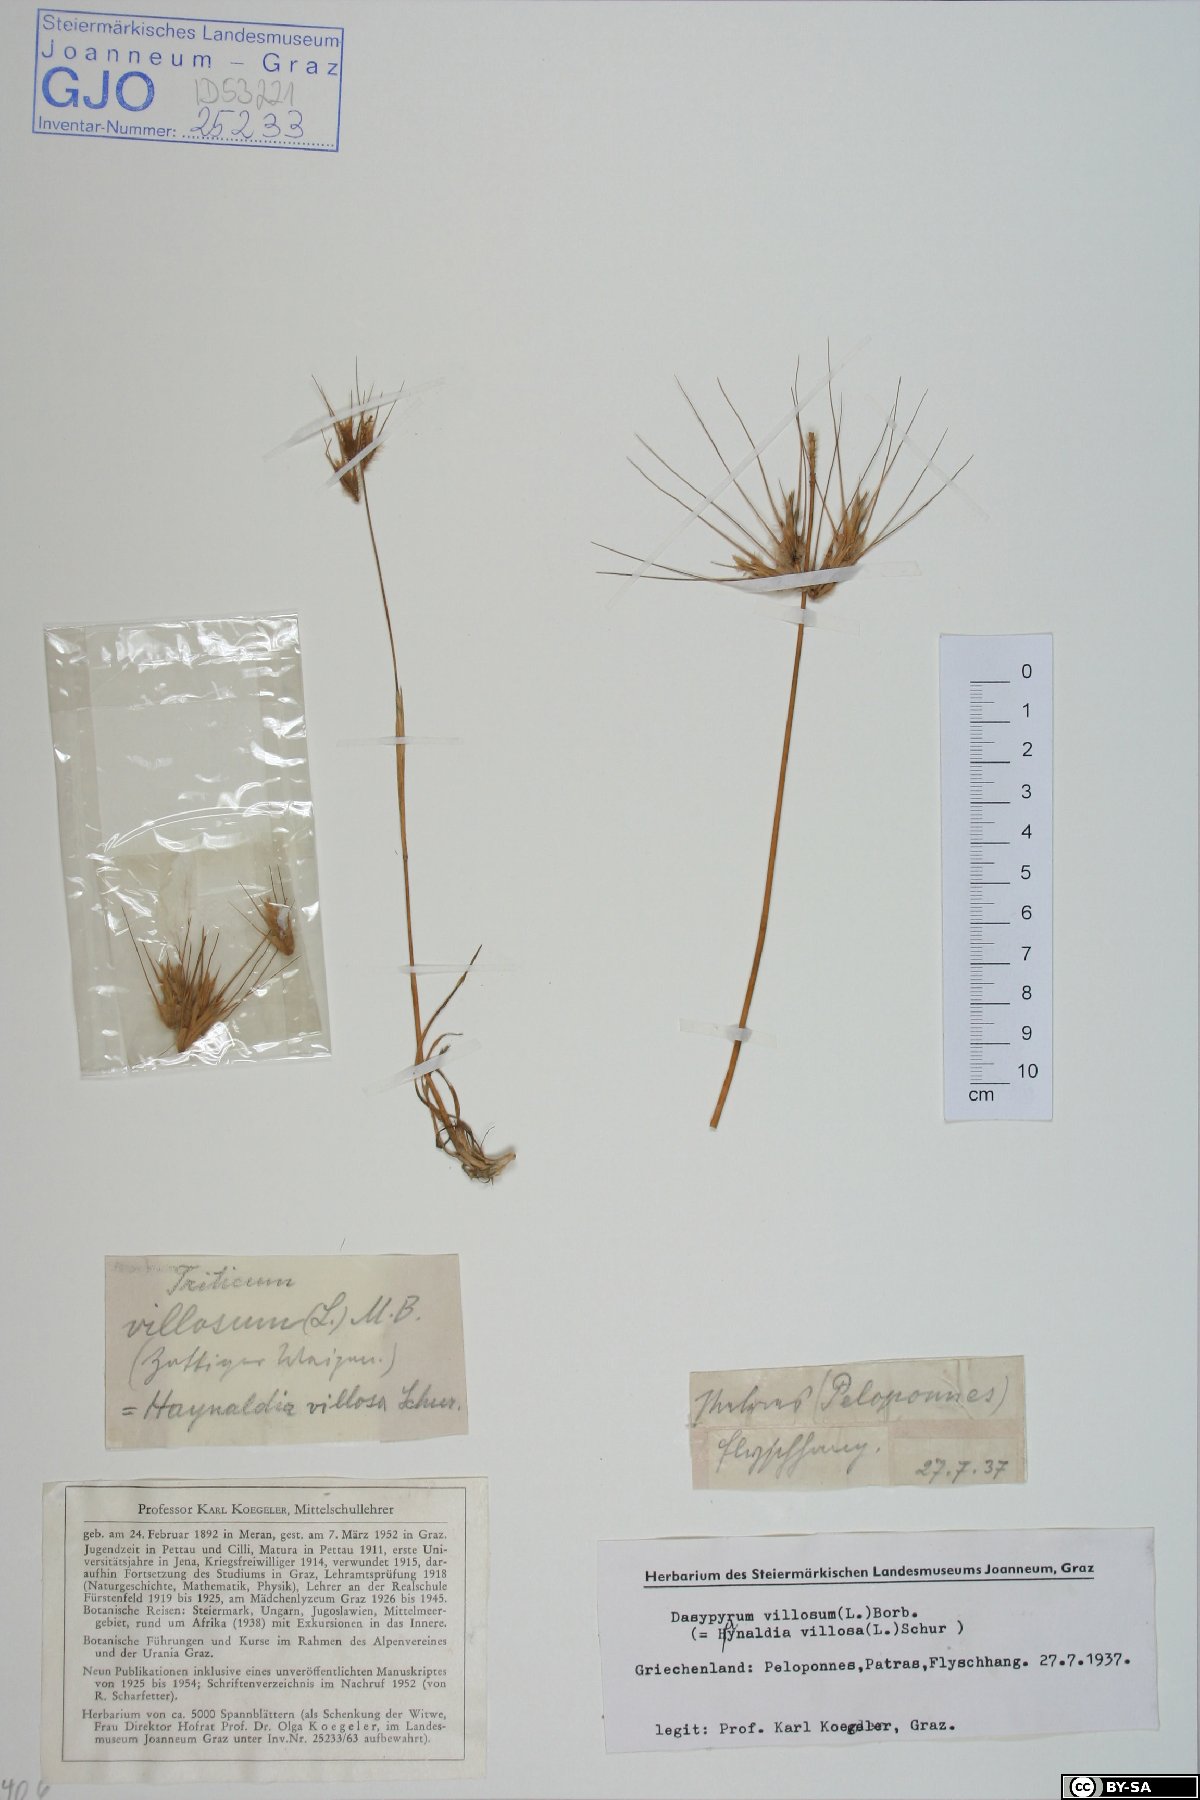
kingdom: Plantae
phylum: Tracheophyta
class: Liliopsida
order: Poales
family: Poaceae
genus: Dasypyrum
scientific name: Dasypyrum villosum
